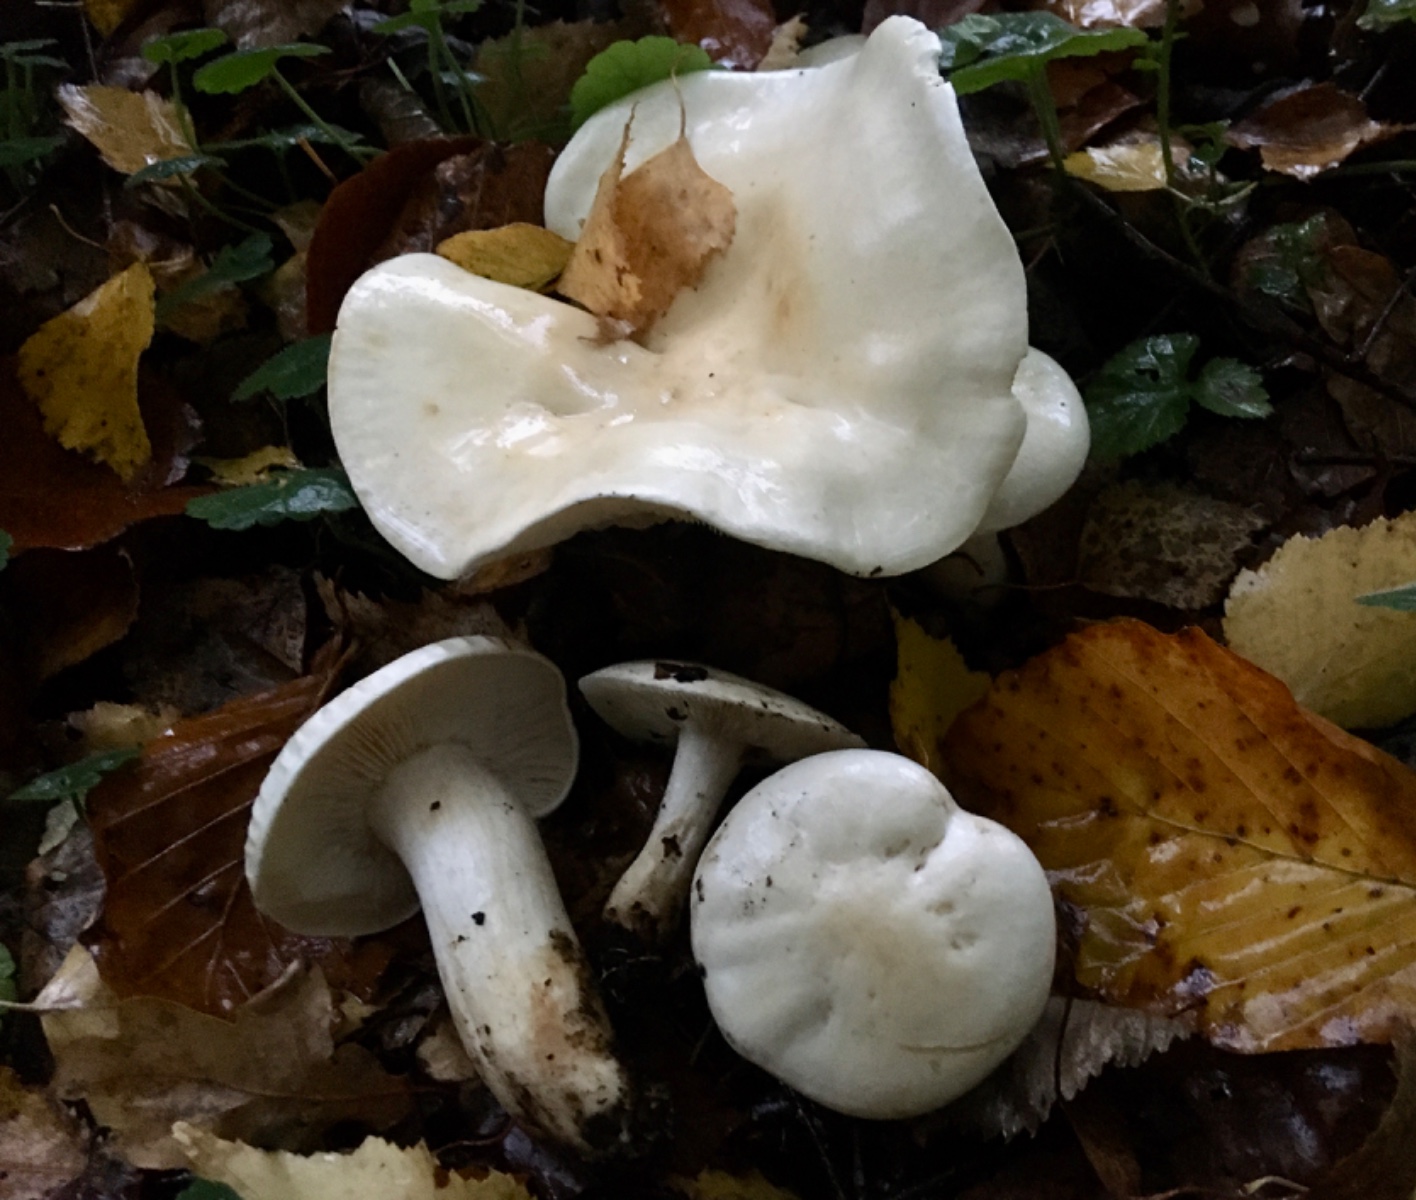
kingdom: Fungi
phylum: Basidiomycota
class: Agaricomycetes
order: Agaricales
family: Tricholomataceae
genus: Tricholoma
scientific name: Tricholoma stiparophyllum
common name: hvid ridderhat
